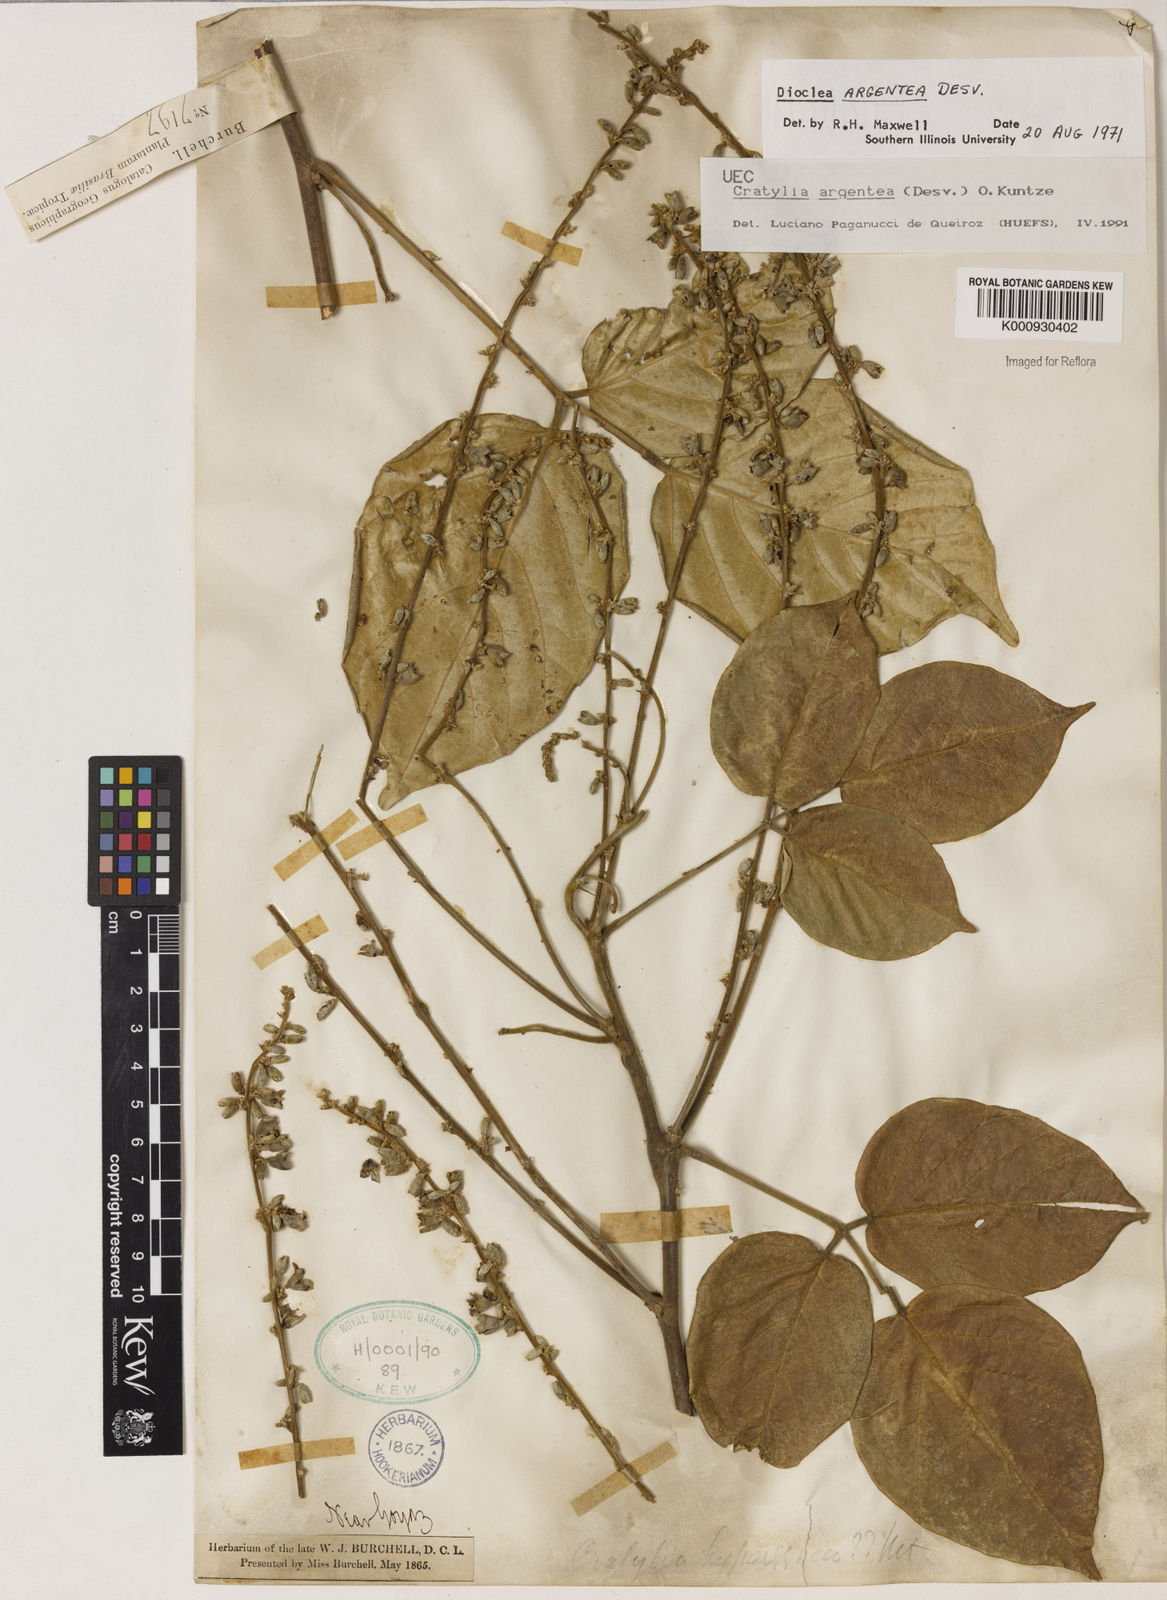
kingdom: Plantae
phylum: Tracheophyta
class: Magnoliopsida
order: Fabales
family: Fabaceae
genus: Cratylia
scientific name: Cratylia argentea
